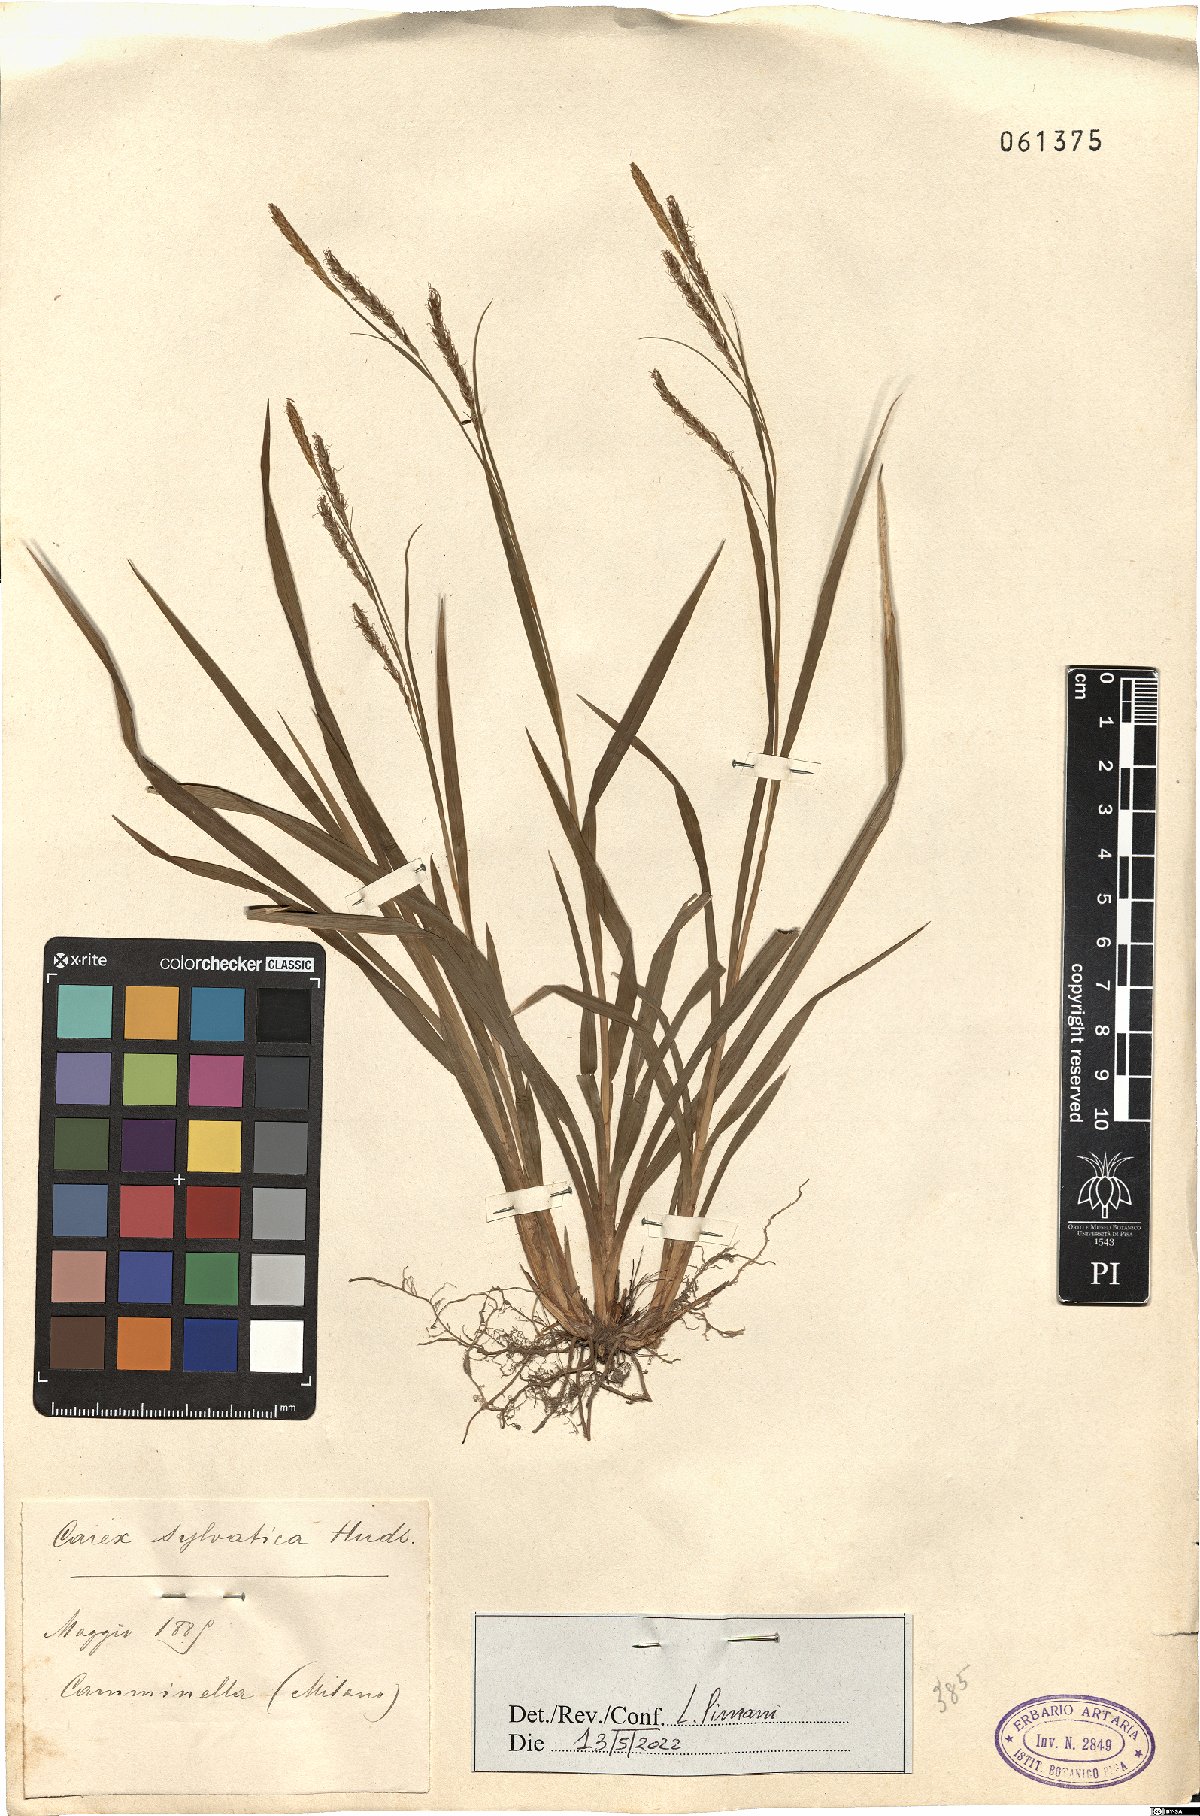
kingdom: Plantae
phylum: Tracheophyta
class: Liliopsida
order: Poales
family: Cyperaceae
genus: Carex
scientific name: Carex sylvatica
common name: Wood-sedge
